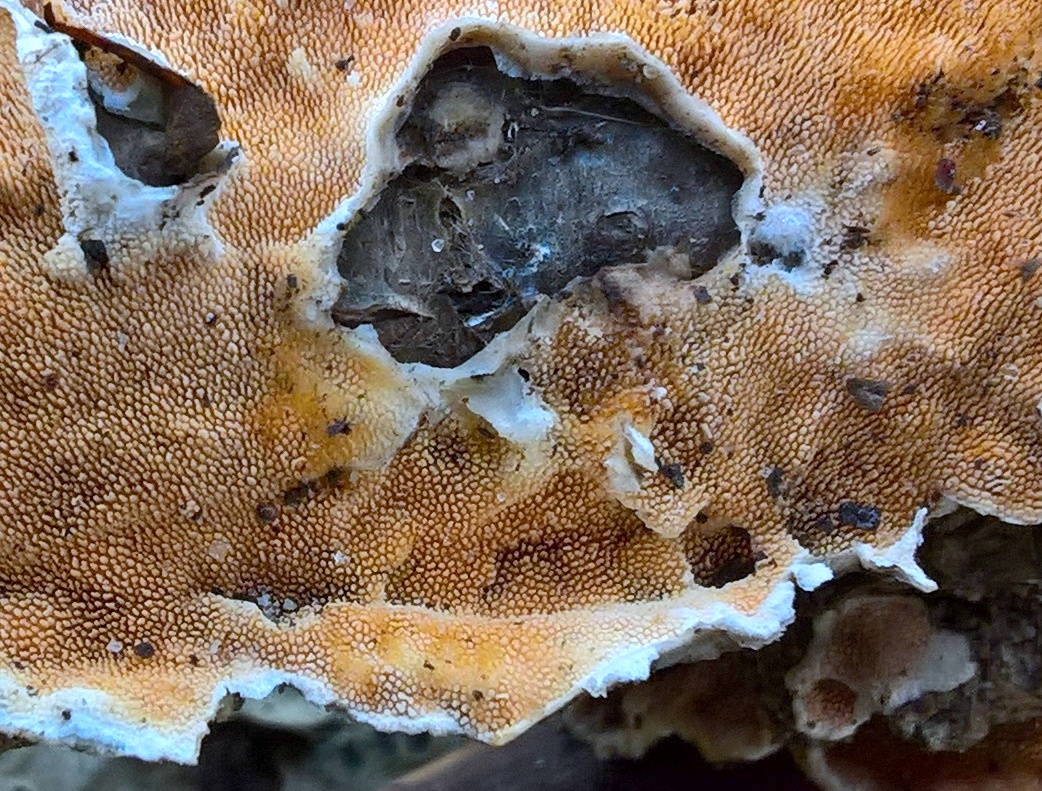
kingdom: Fungi
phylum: Basidiomycota
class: Agaricomycetes
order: Polyporales
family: Steccherinaceae
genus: Steccherinum
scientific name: Steccherinum ochraceum
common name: almindelig skønpig
